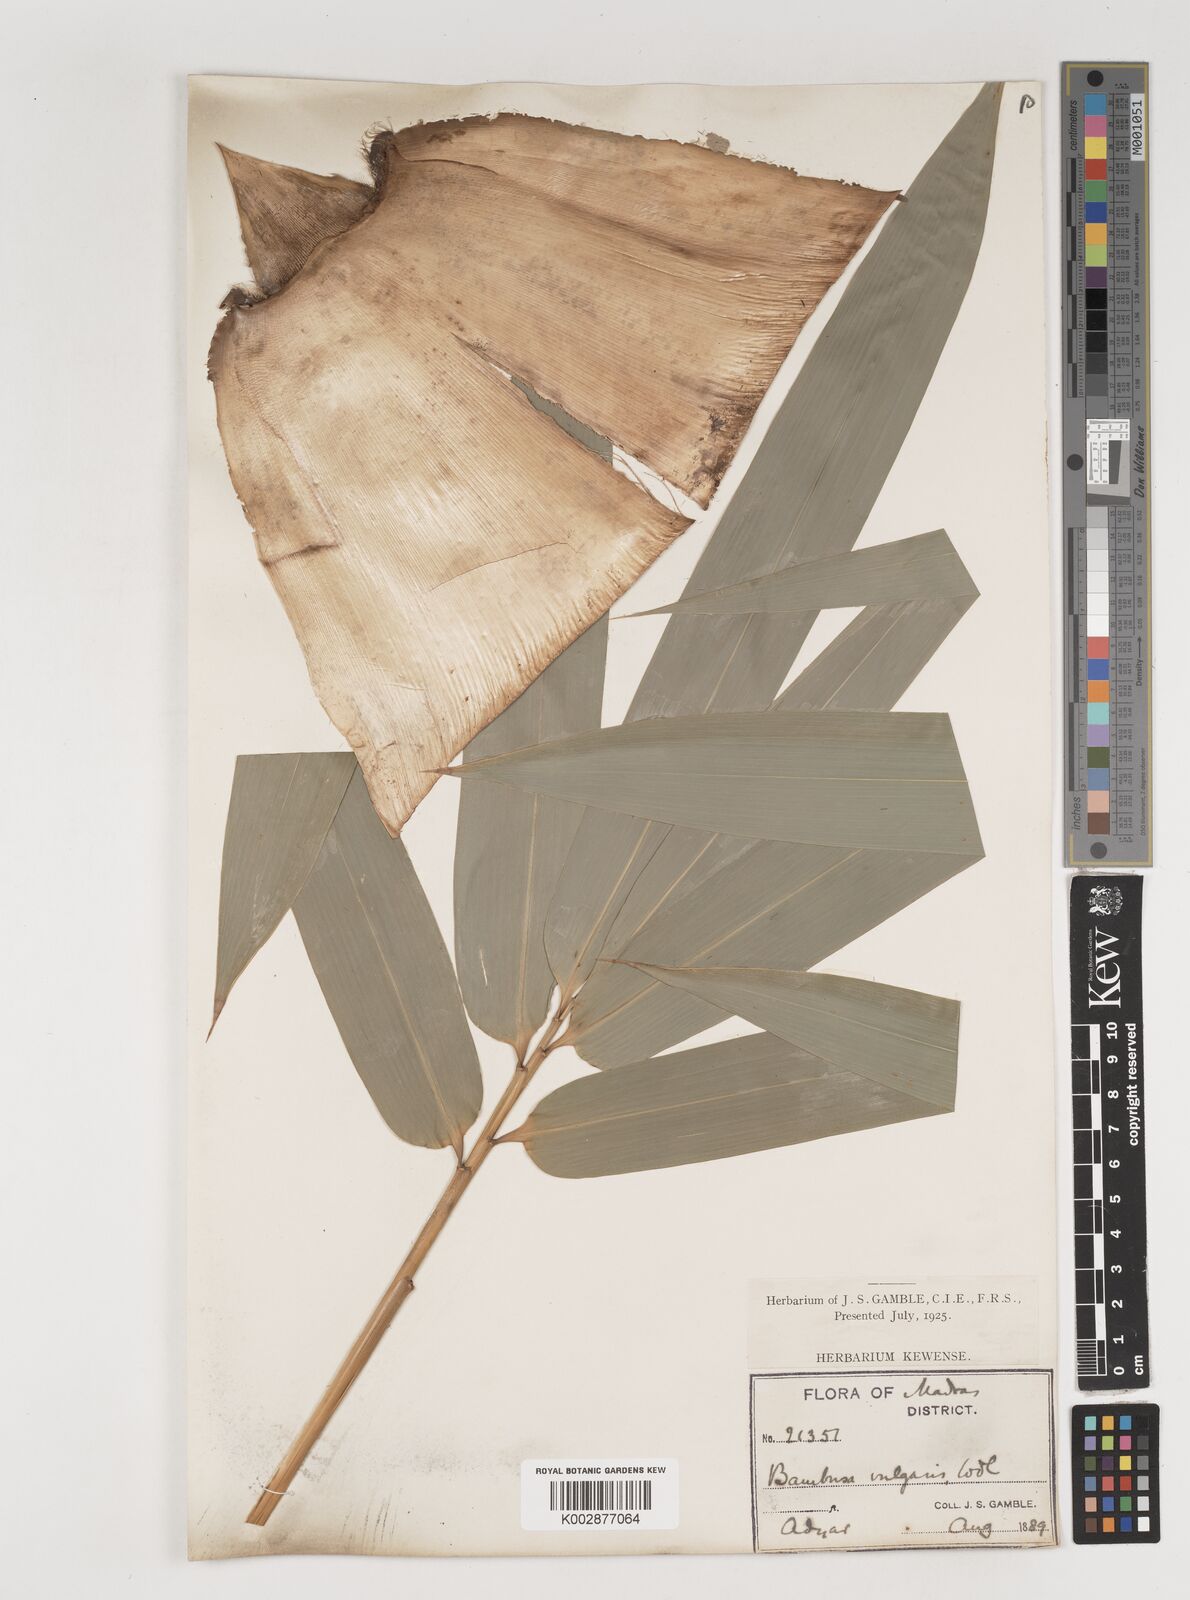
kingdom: Plantae
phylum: Tracheophyta
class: Liliopsida
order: Poales
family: Poaceae
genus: Bambusa
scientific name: Bambusa vulgaris
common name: Common bamboo
